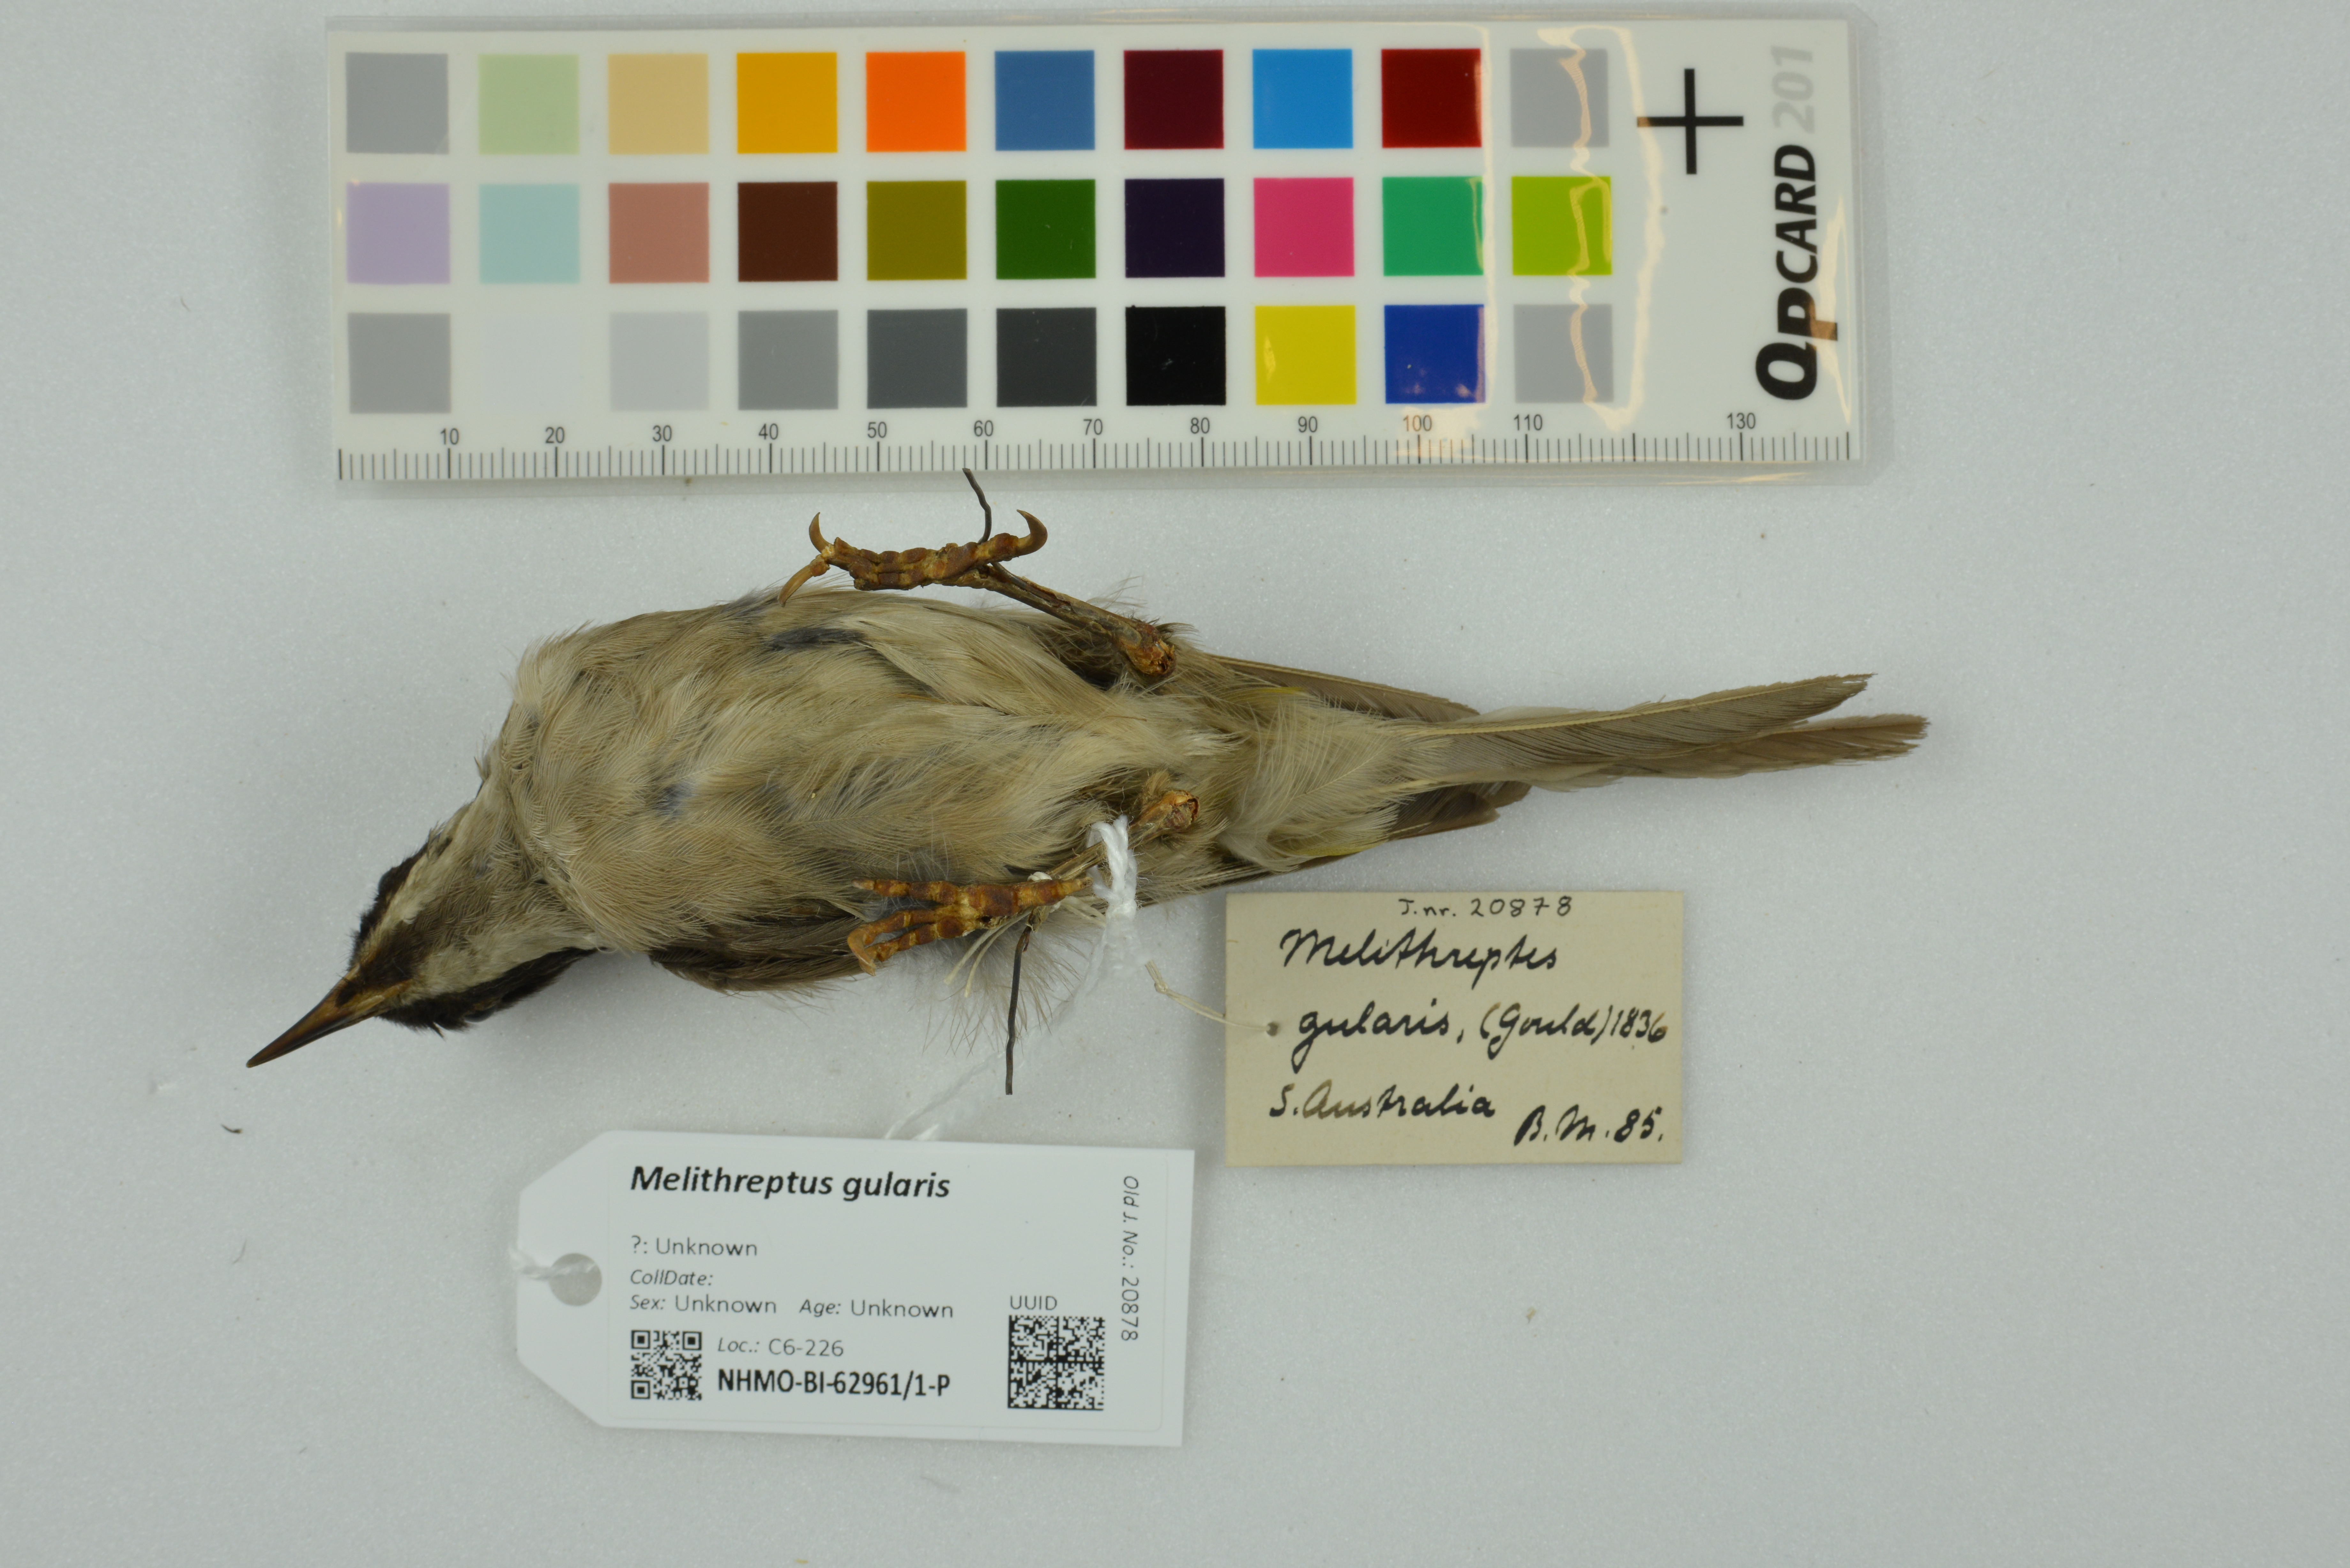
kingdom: Animalia
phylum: Chordata
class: Aves
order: Passeriformes
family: Meliphagidae
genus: Melithreptus
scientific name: Melithreptus gularis
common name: Black-chinned honeyeater
